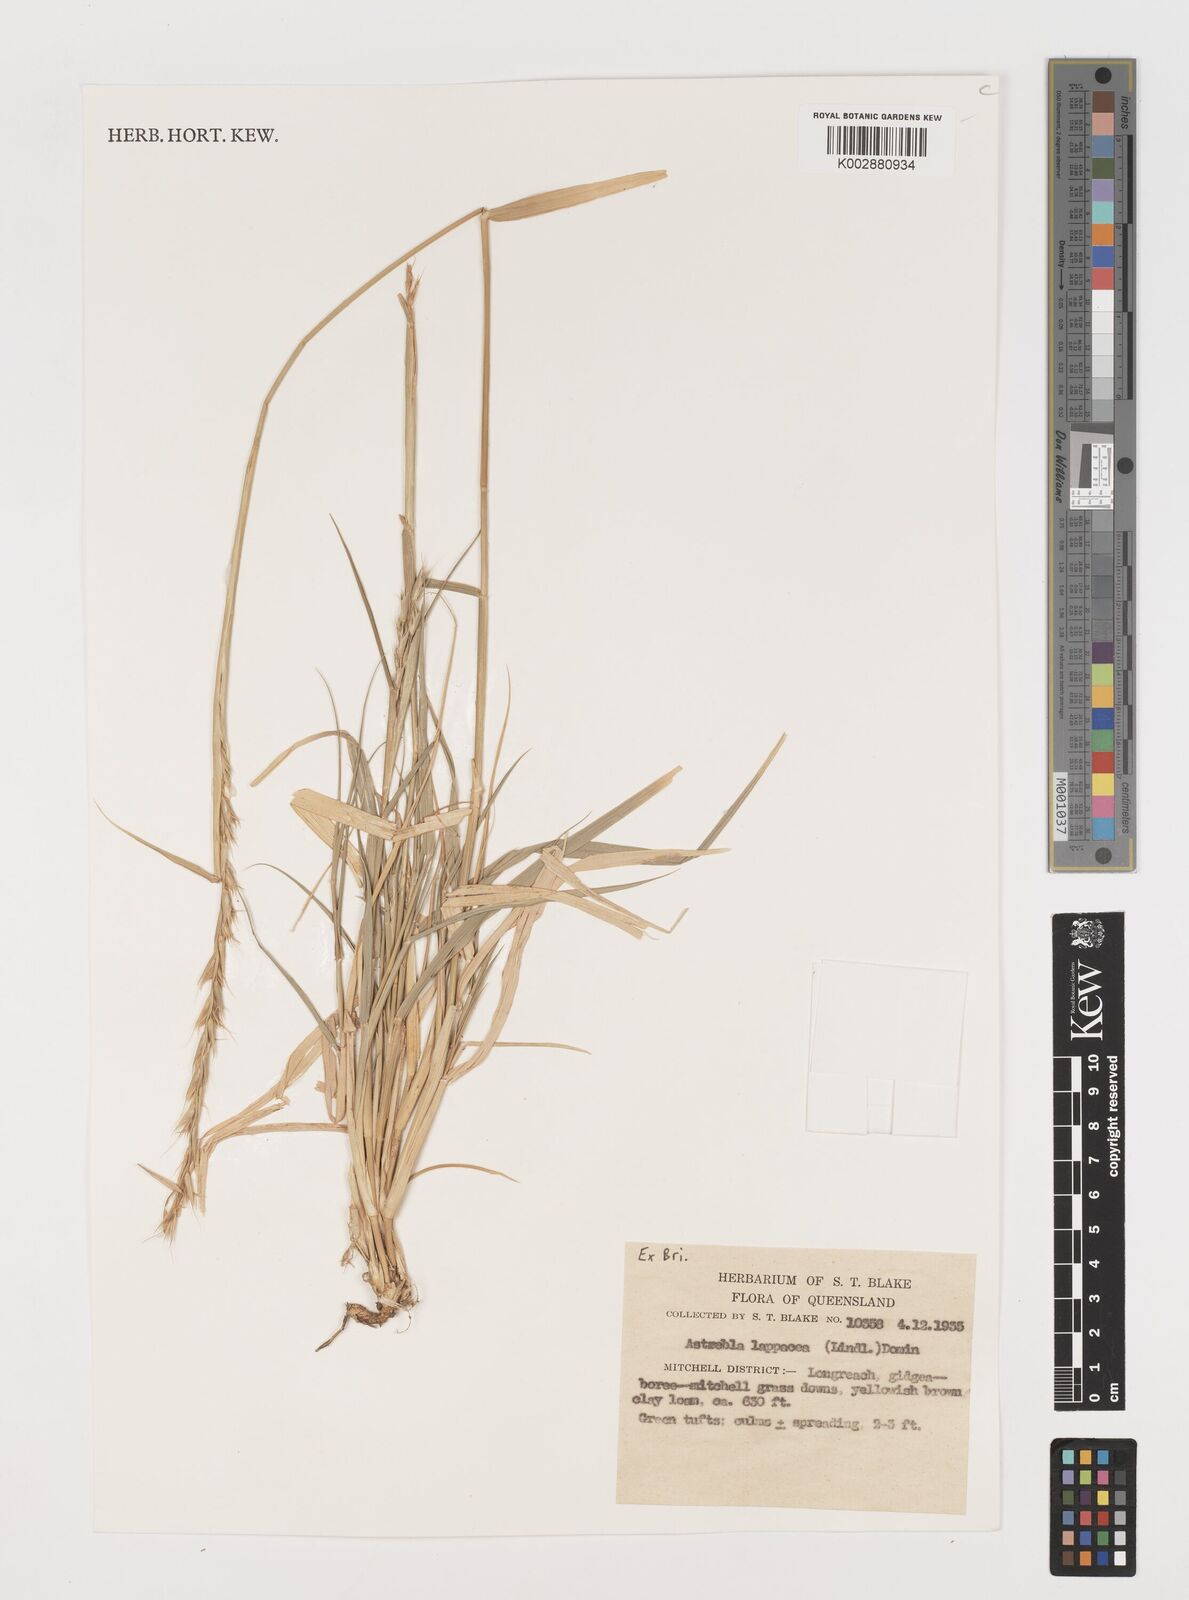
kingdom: Plantae
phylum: Tracheophyta
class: Liliopsida
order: Poales
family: Poaceae
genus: Astrebla
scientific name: Astrebla lappacea
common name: Curly mitchell grass
